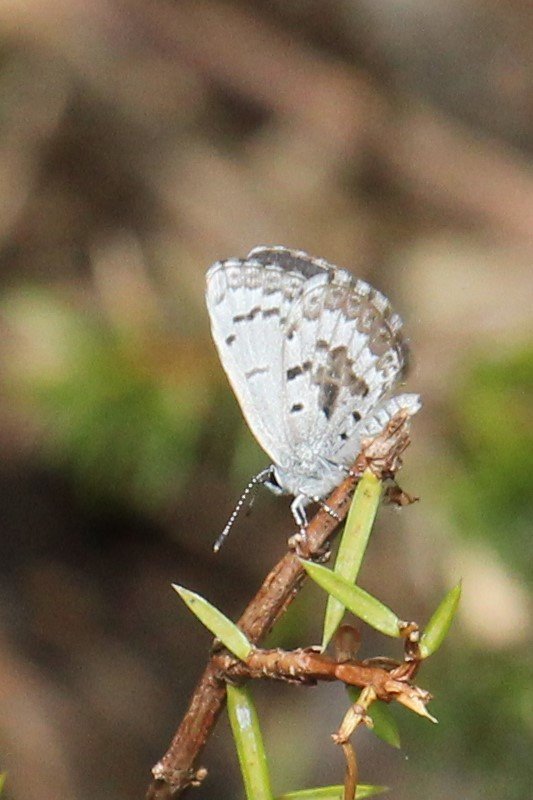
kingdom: Animalia
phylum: Arthropoda
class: Insecta
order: Lepidoptera
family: Lycaenidae
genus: Celastrina
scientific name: Celastrina lucia
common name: Northern Spring Azure
